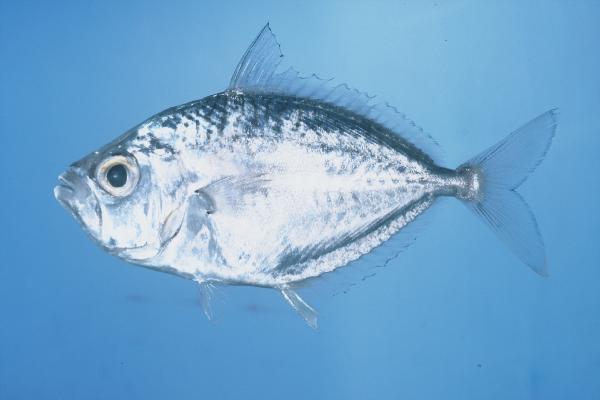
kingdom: Animalia
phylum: Chordata
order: Perciformes
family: Leiognathidae
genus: Gazza
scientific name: Gazza dentex
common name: Ovoid ponyfish
